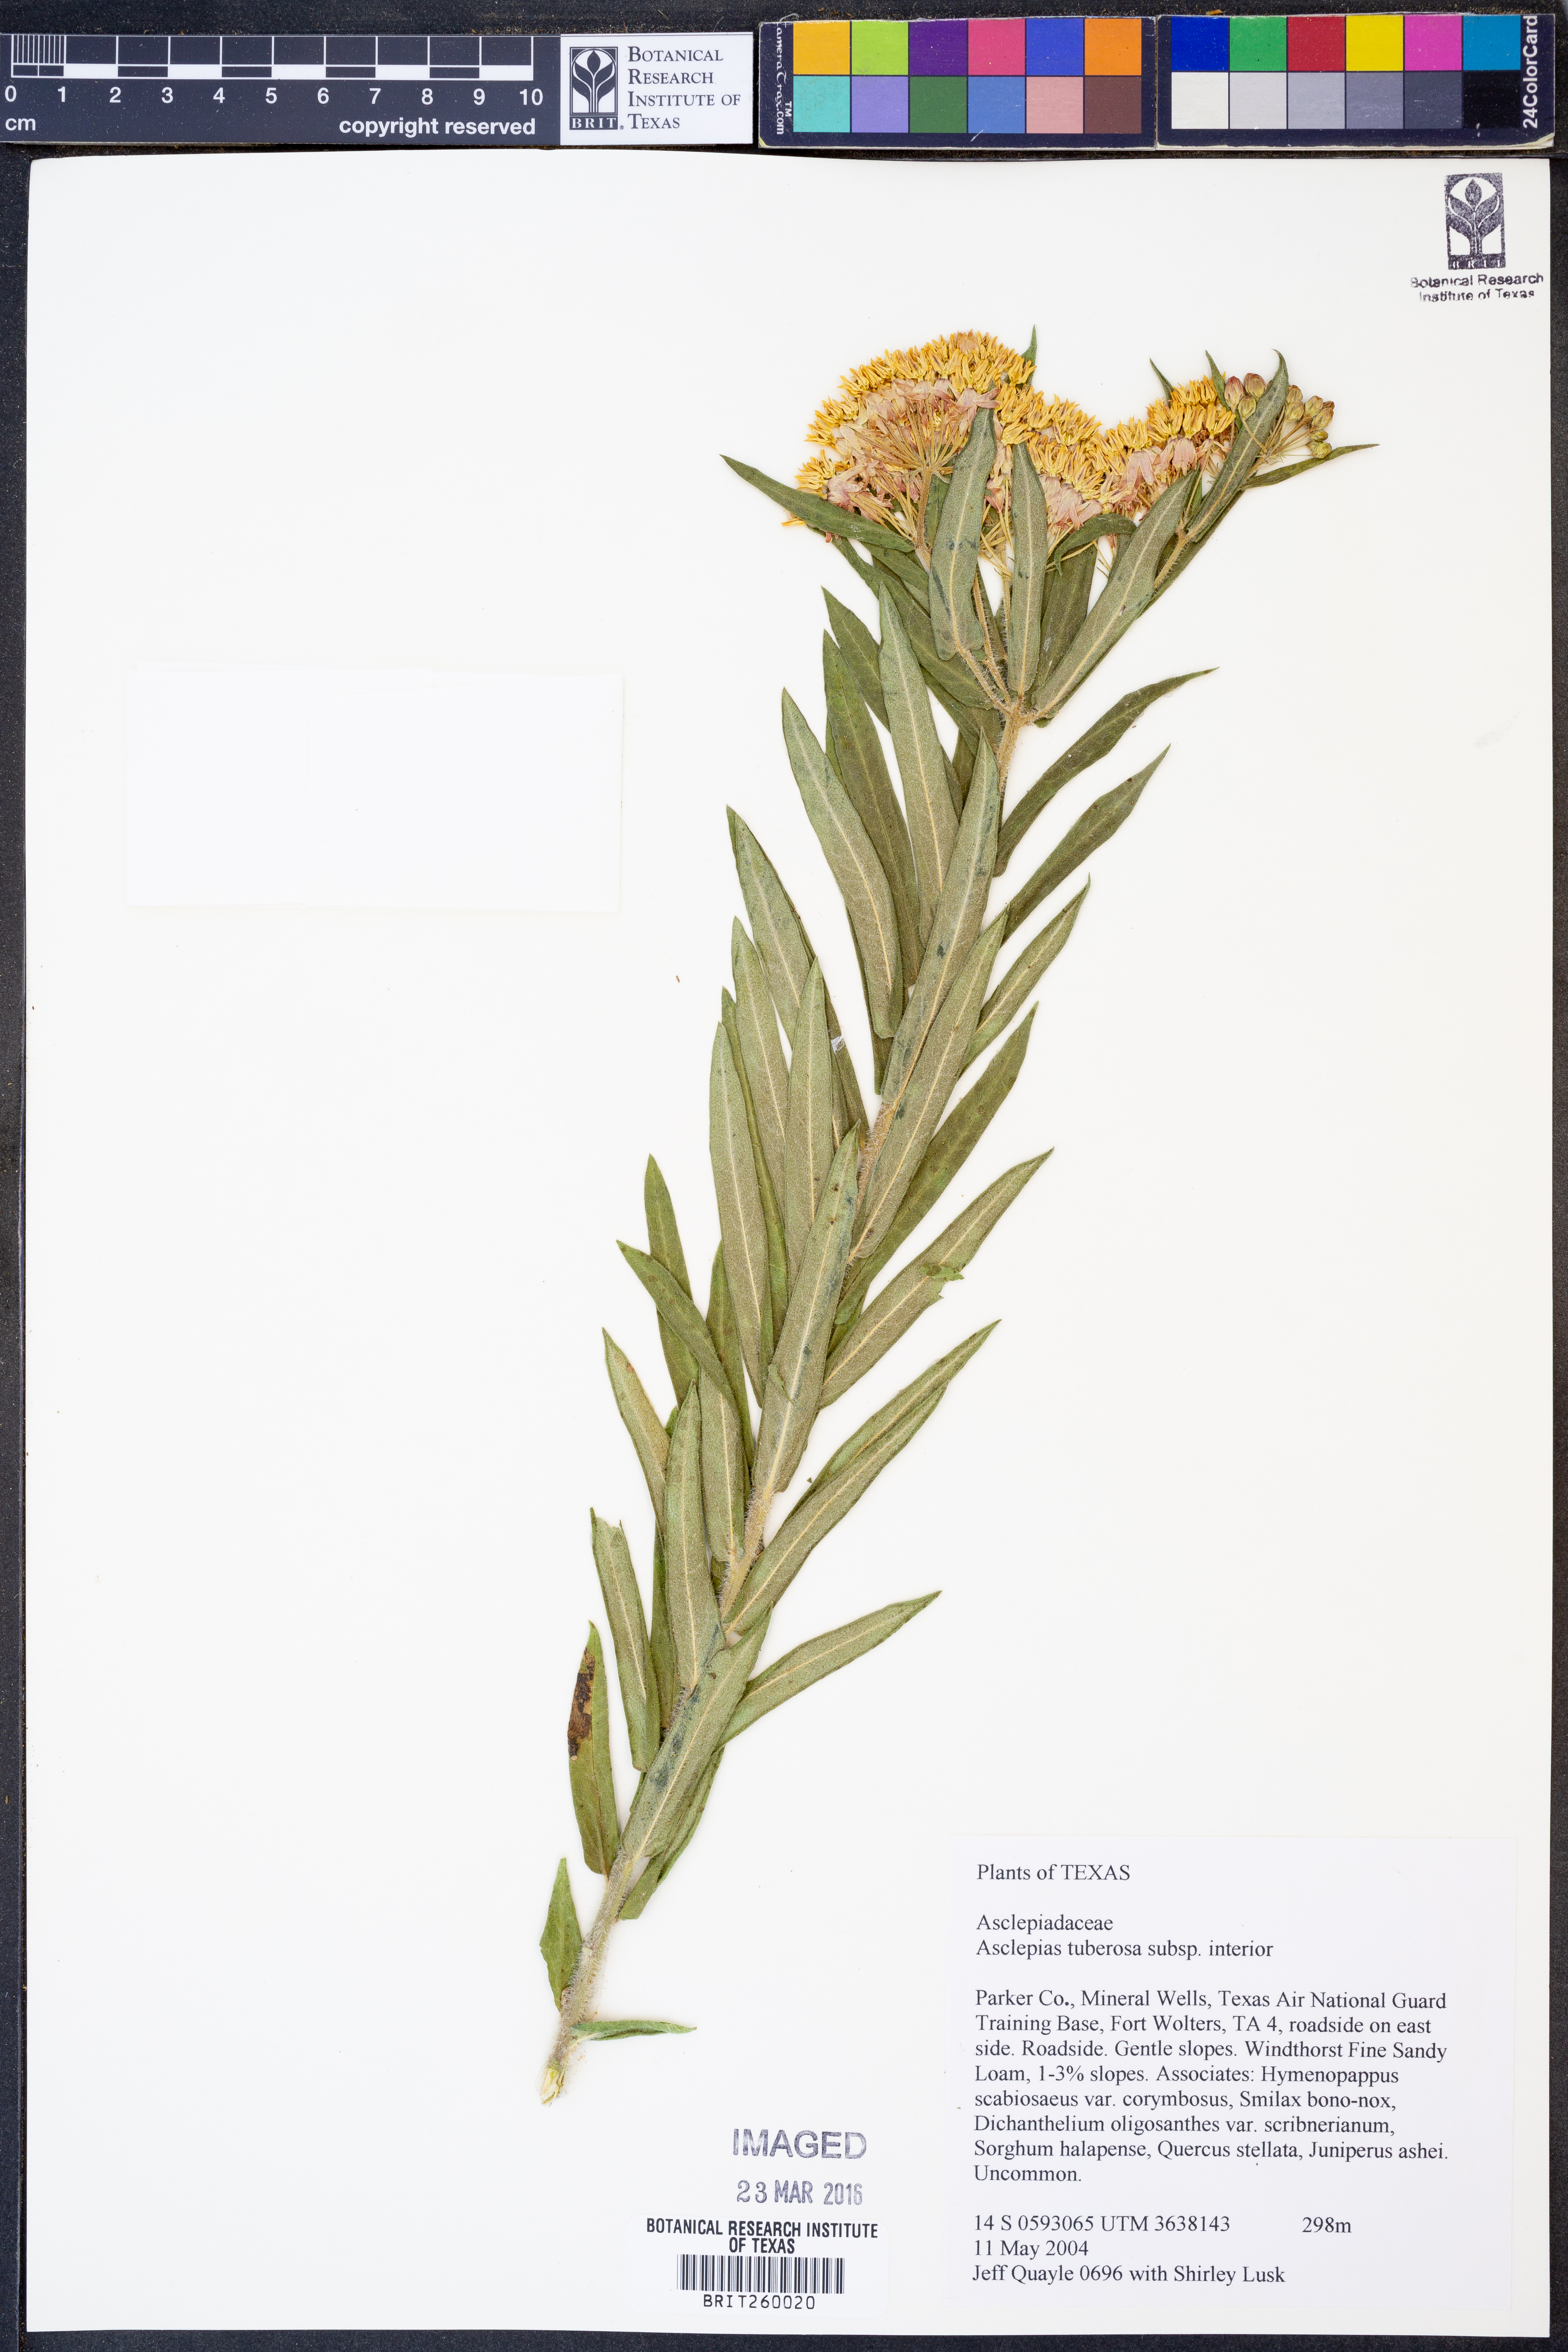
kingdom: Plantae
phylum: Tracheophyta
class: Magnoliopsida
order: Gentianales
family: Apocynaceae
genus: Asclepias
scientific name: Asclepias tuberosa
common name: Butterfly milkweed
